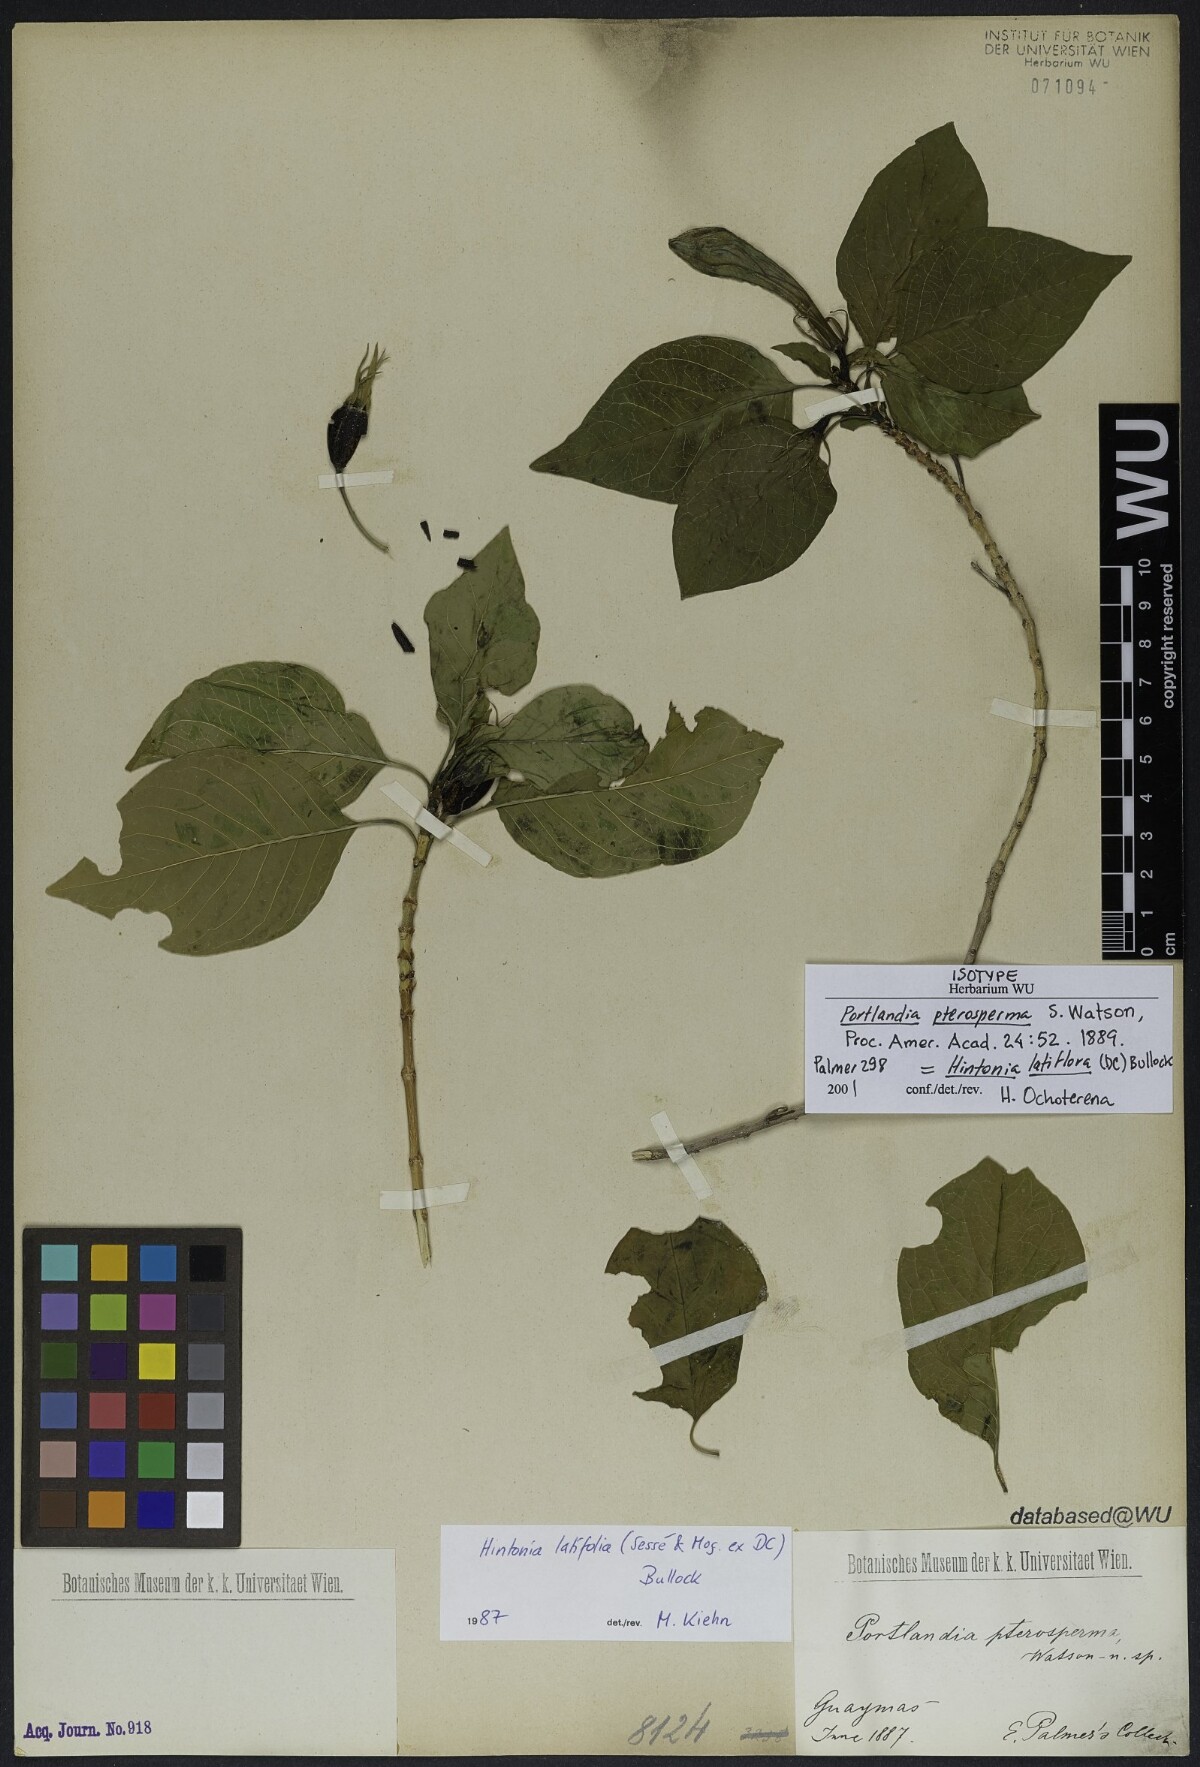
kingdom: Plantae
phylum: Tracheophyta
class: Magnoliopsida
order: Gentianales
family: Rubiaceae
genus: Hintonia
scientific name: Hintonia latiflora
